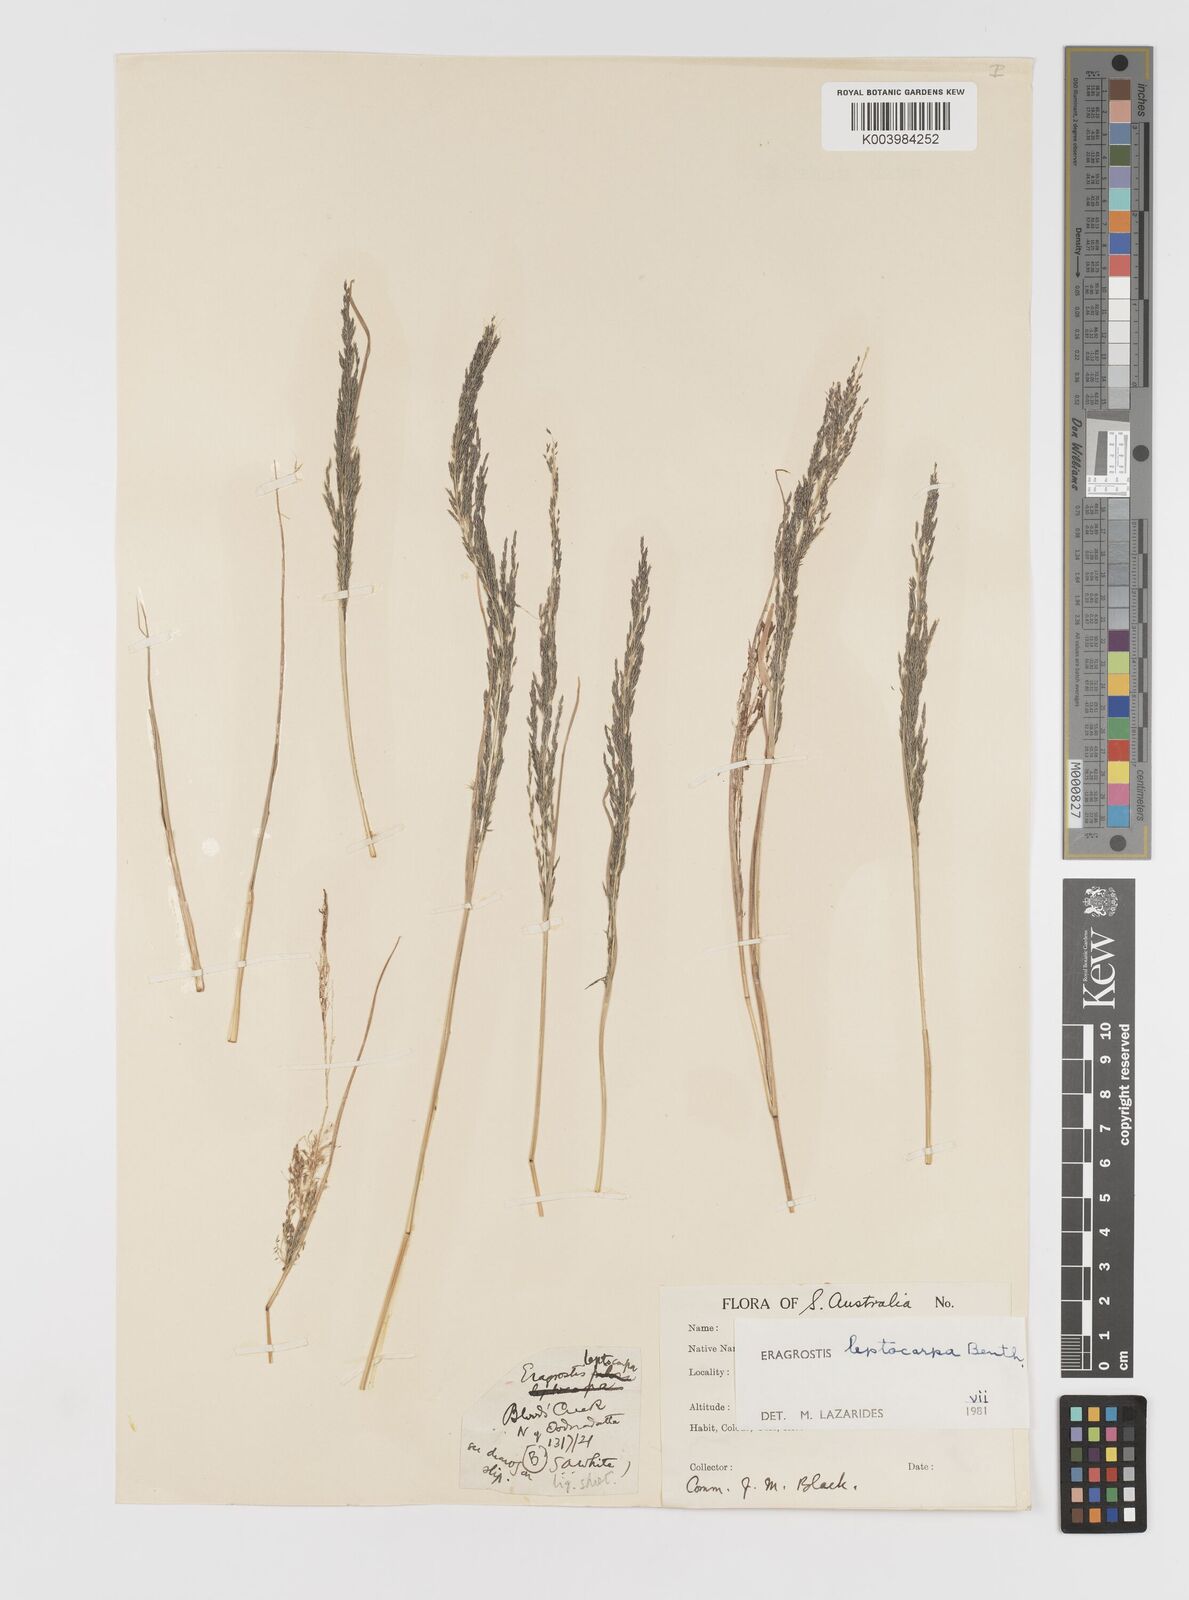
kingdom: Plantae
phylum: Tracheophyta
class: Liliopsida
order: Poales
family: Poaceae
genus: Eragrostis
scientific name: Eragrostis leptocarpa
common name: Drooping love grass
